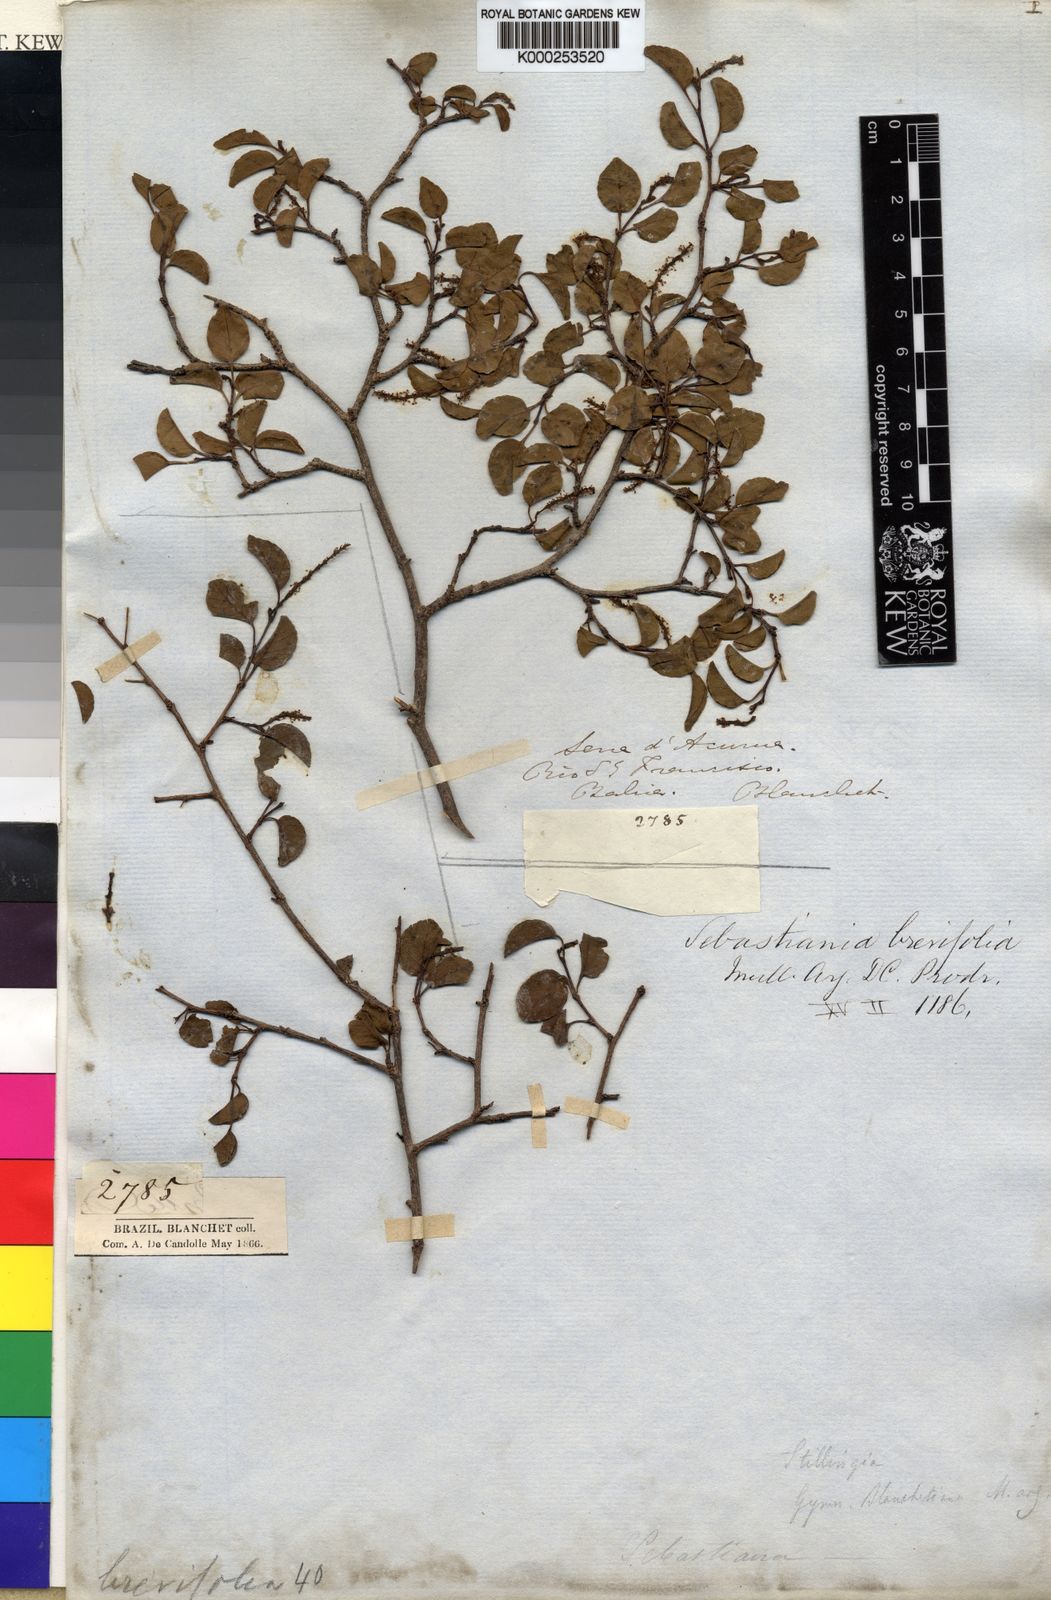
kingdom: Plantae
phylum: Tracheophyta
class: Magnoliopsida
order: Malpighiales
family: Euphorbiaceae
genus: Sebastiania
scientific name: Sebastiania
